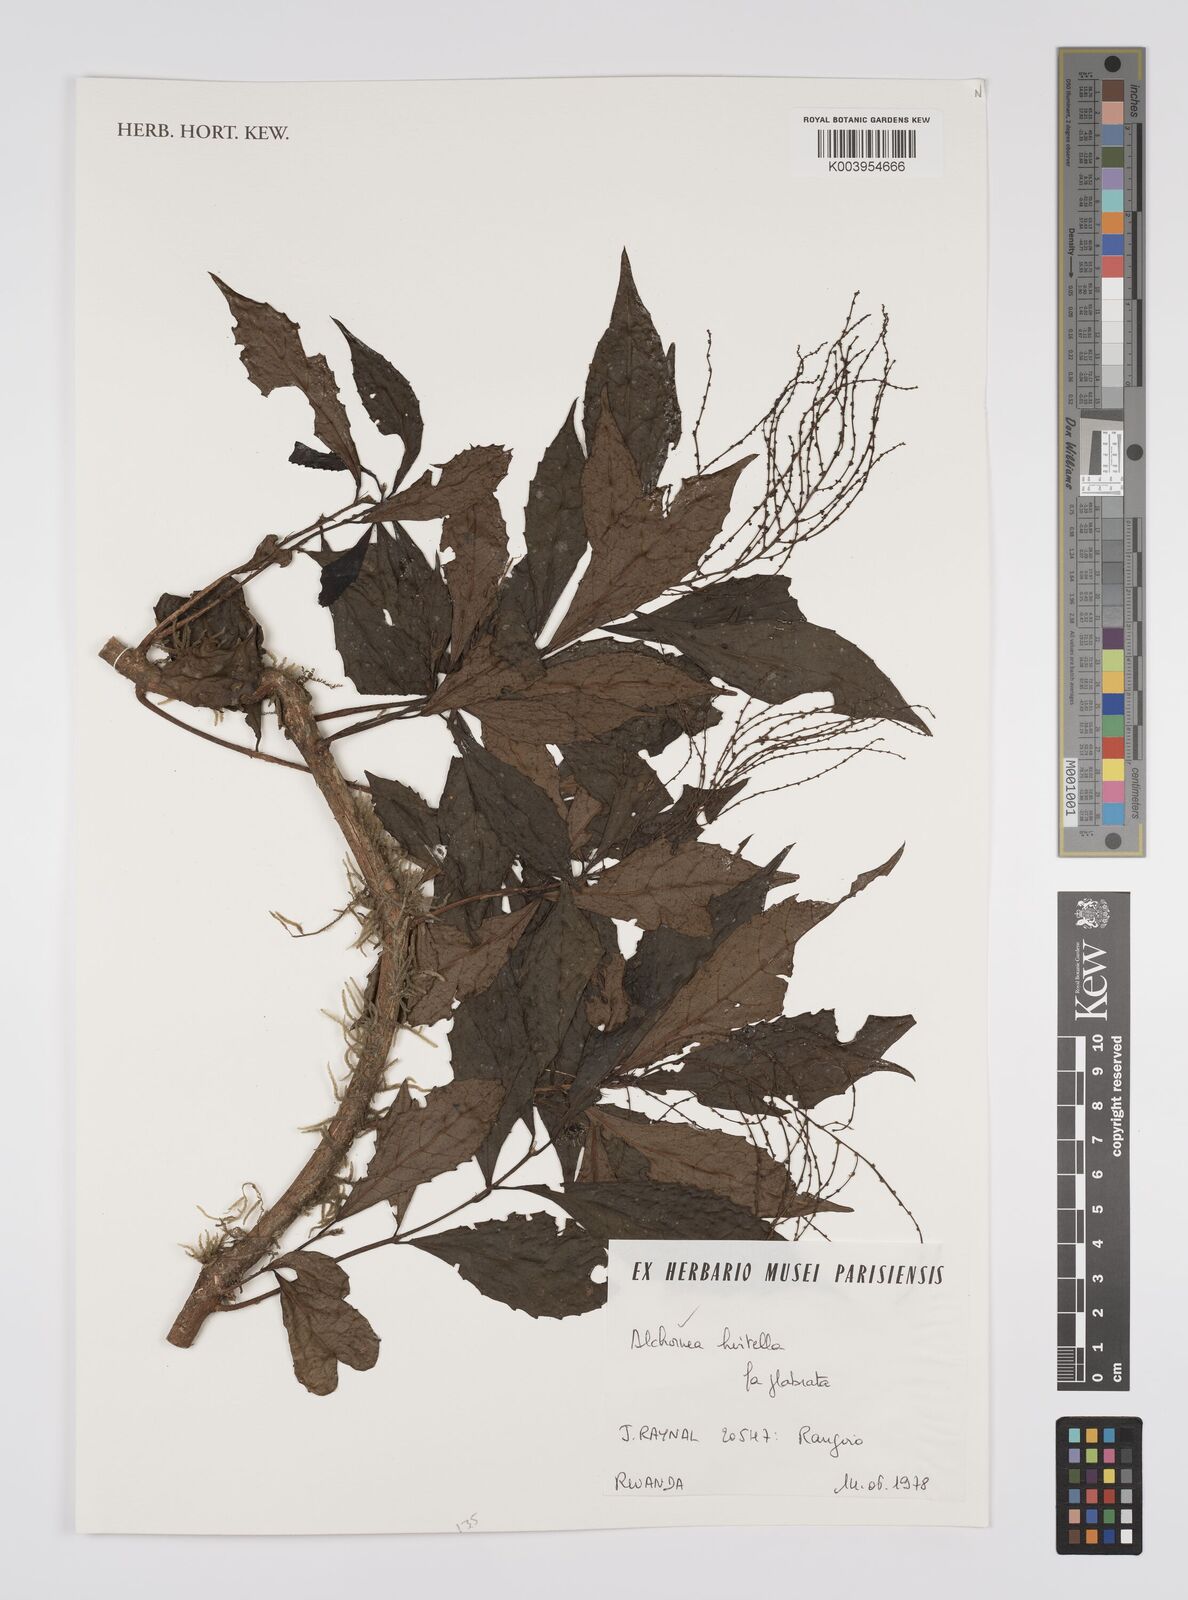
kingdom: Plantae
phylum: Tracheophyta
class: Magnoliopsida
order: Malpighiales
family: Euphorbiaceae
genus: Alchornea
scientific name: Alchornea hirtella
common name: Forest bead-string
